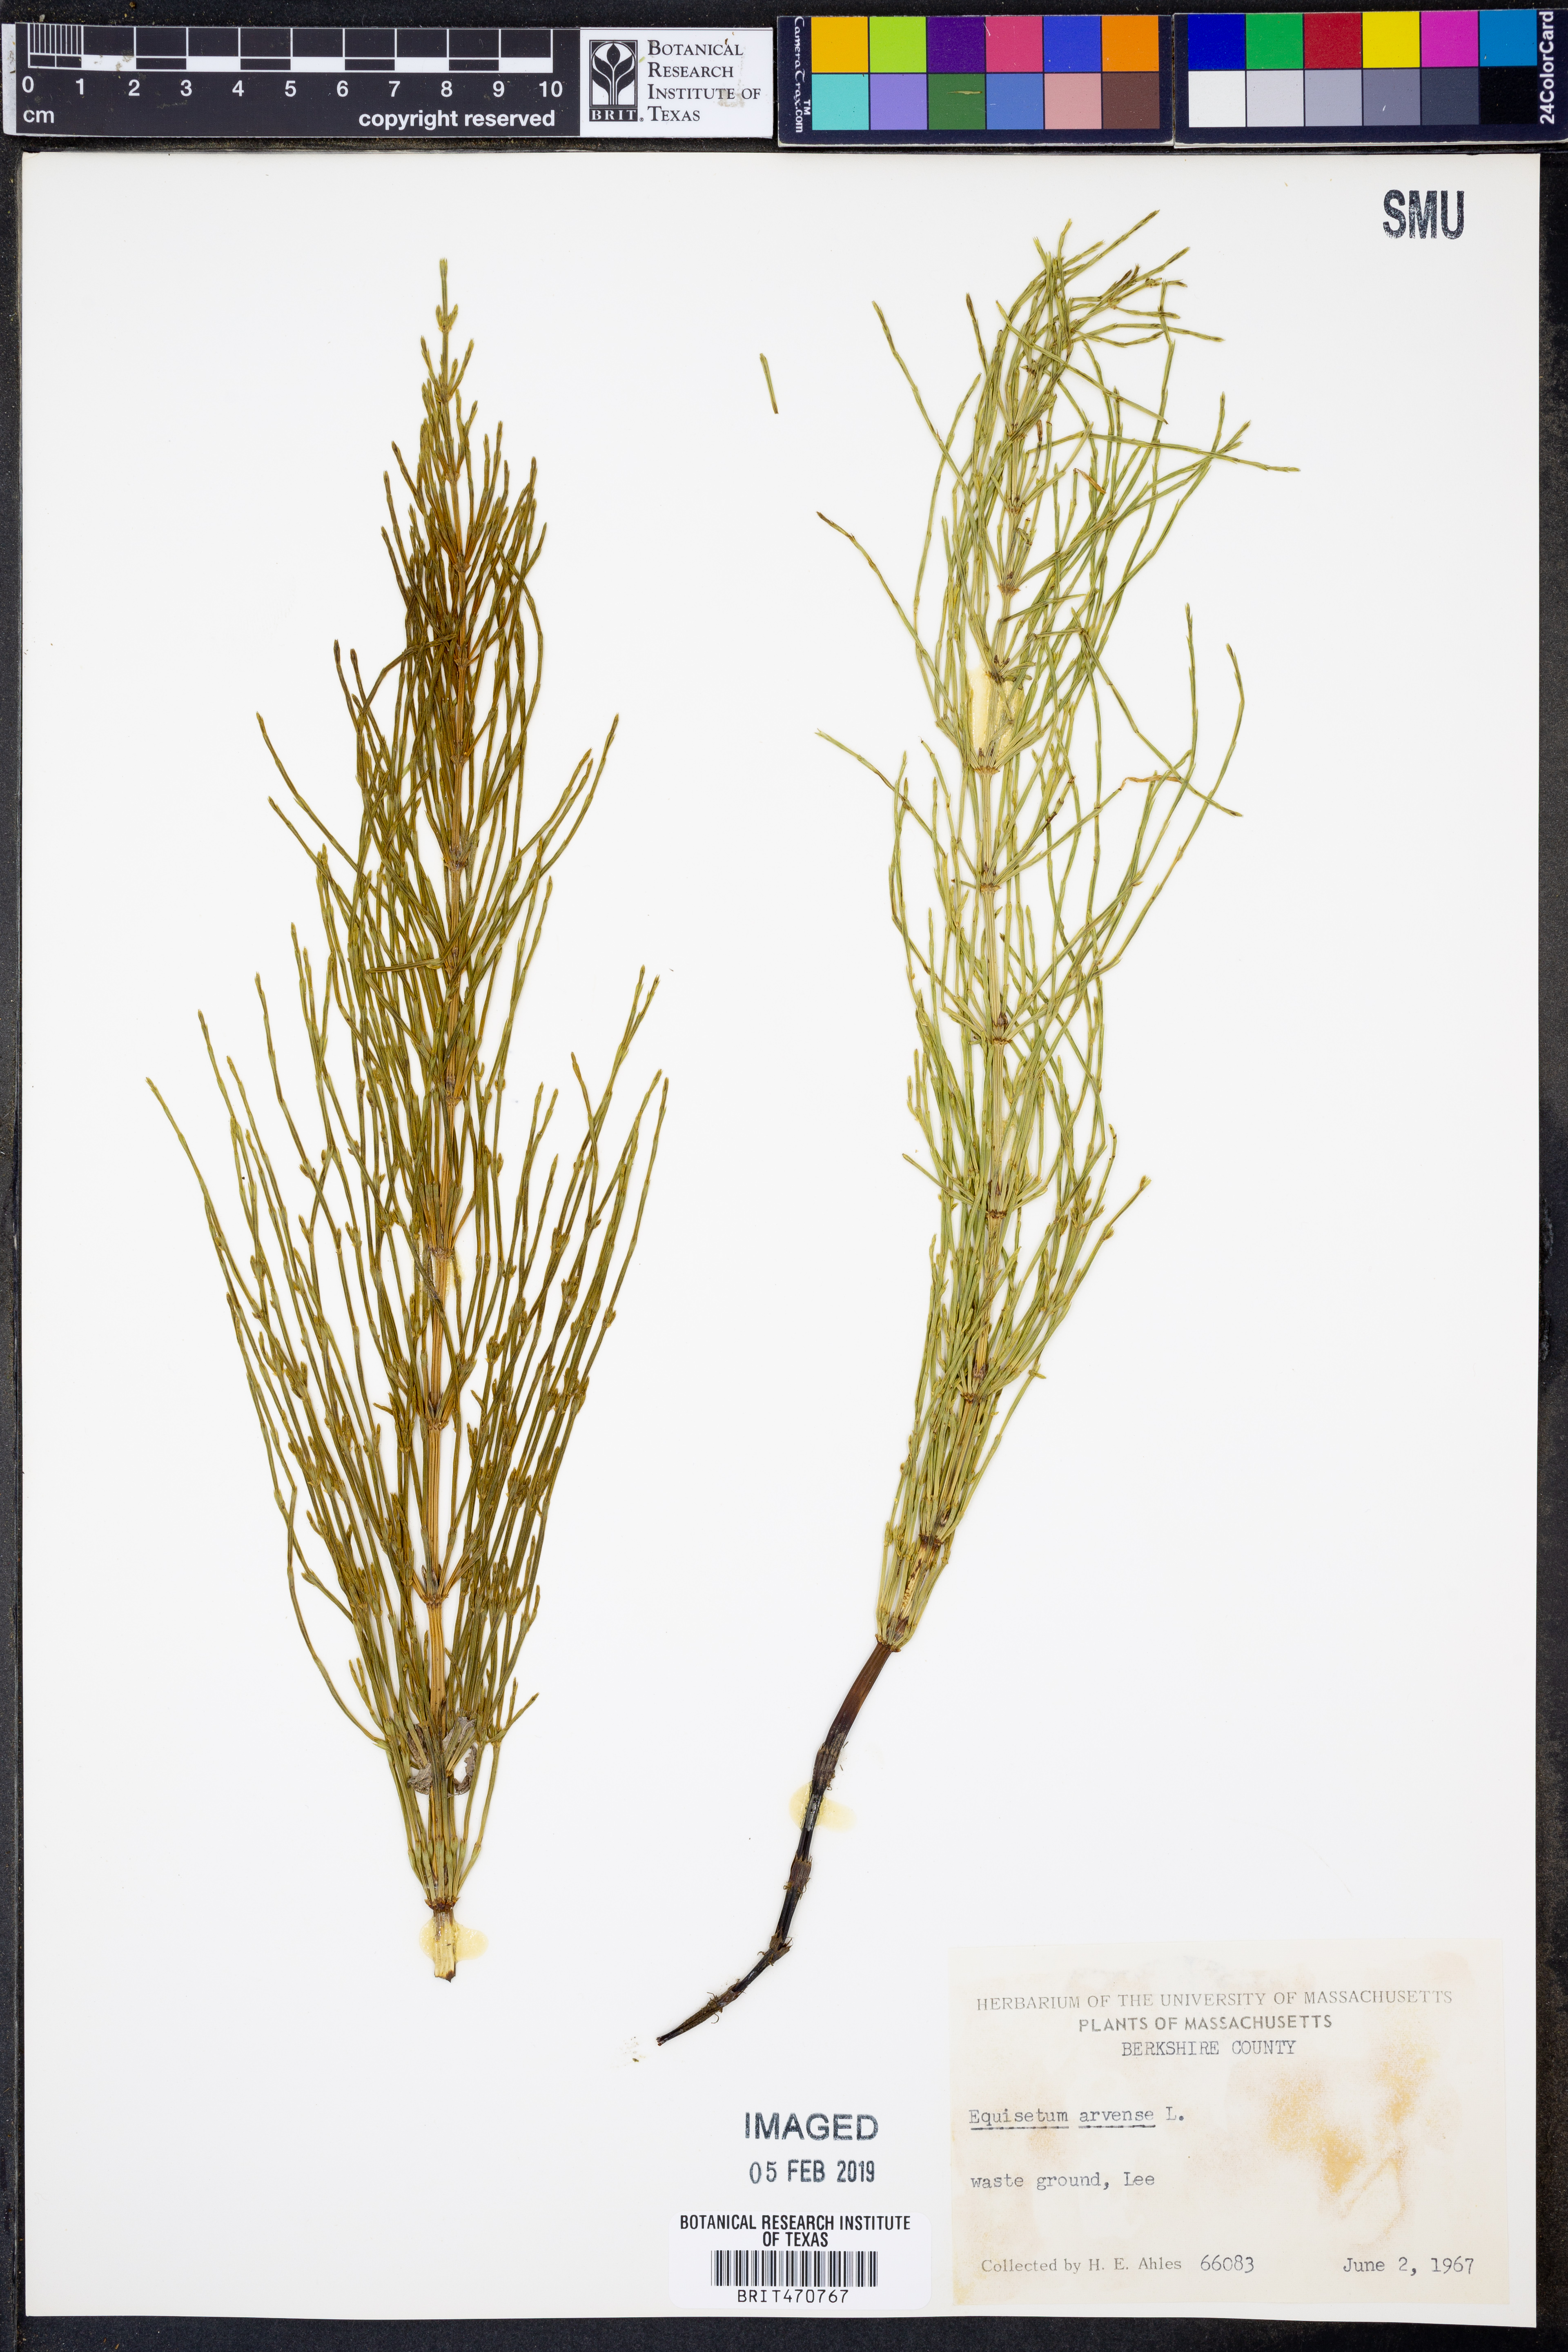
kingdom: Plantae
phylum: Tracheophyta
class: Polypodiopsida
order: Equisetales
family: Equisetaceae
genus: Equisetum
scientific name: Equisetum arvense
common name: Field horsetail
